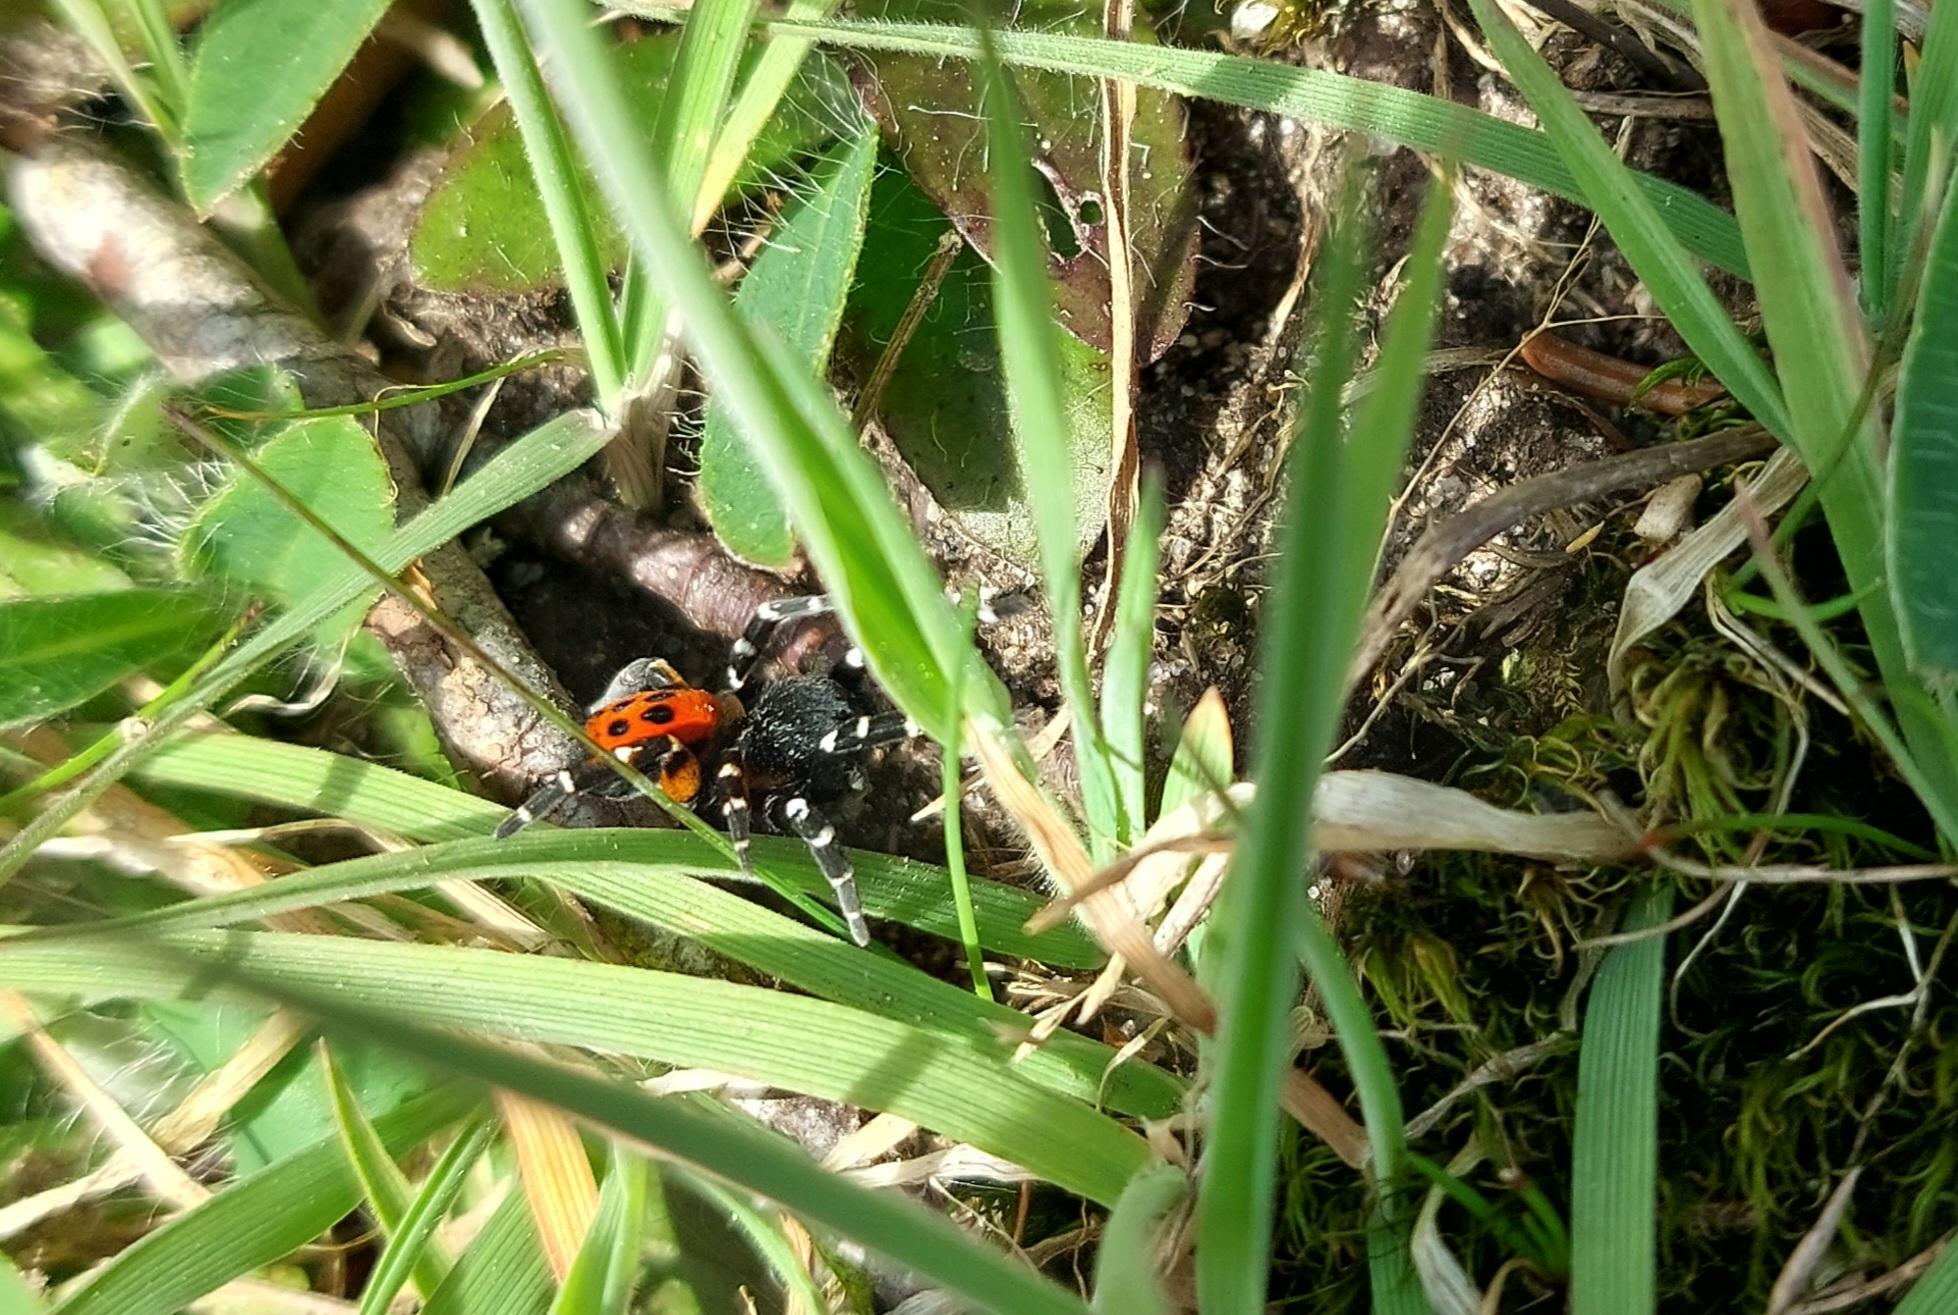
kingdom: Animalia
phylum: Arthropoda
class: Arachnida
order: Araneae
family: Eresidae
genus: Eresus
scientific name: Eresus sandaliatus
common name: Mariehøneedderkop
